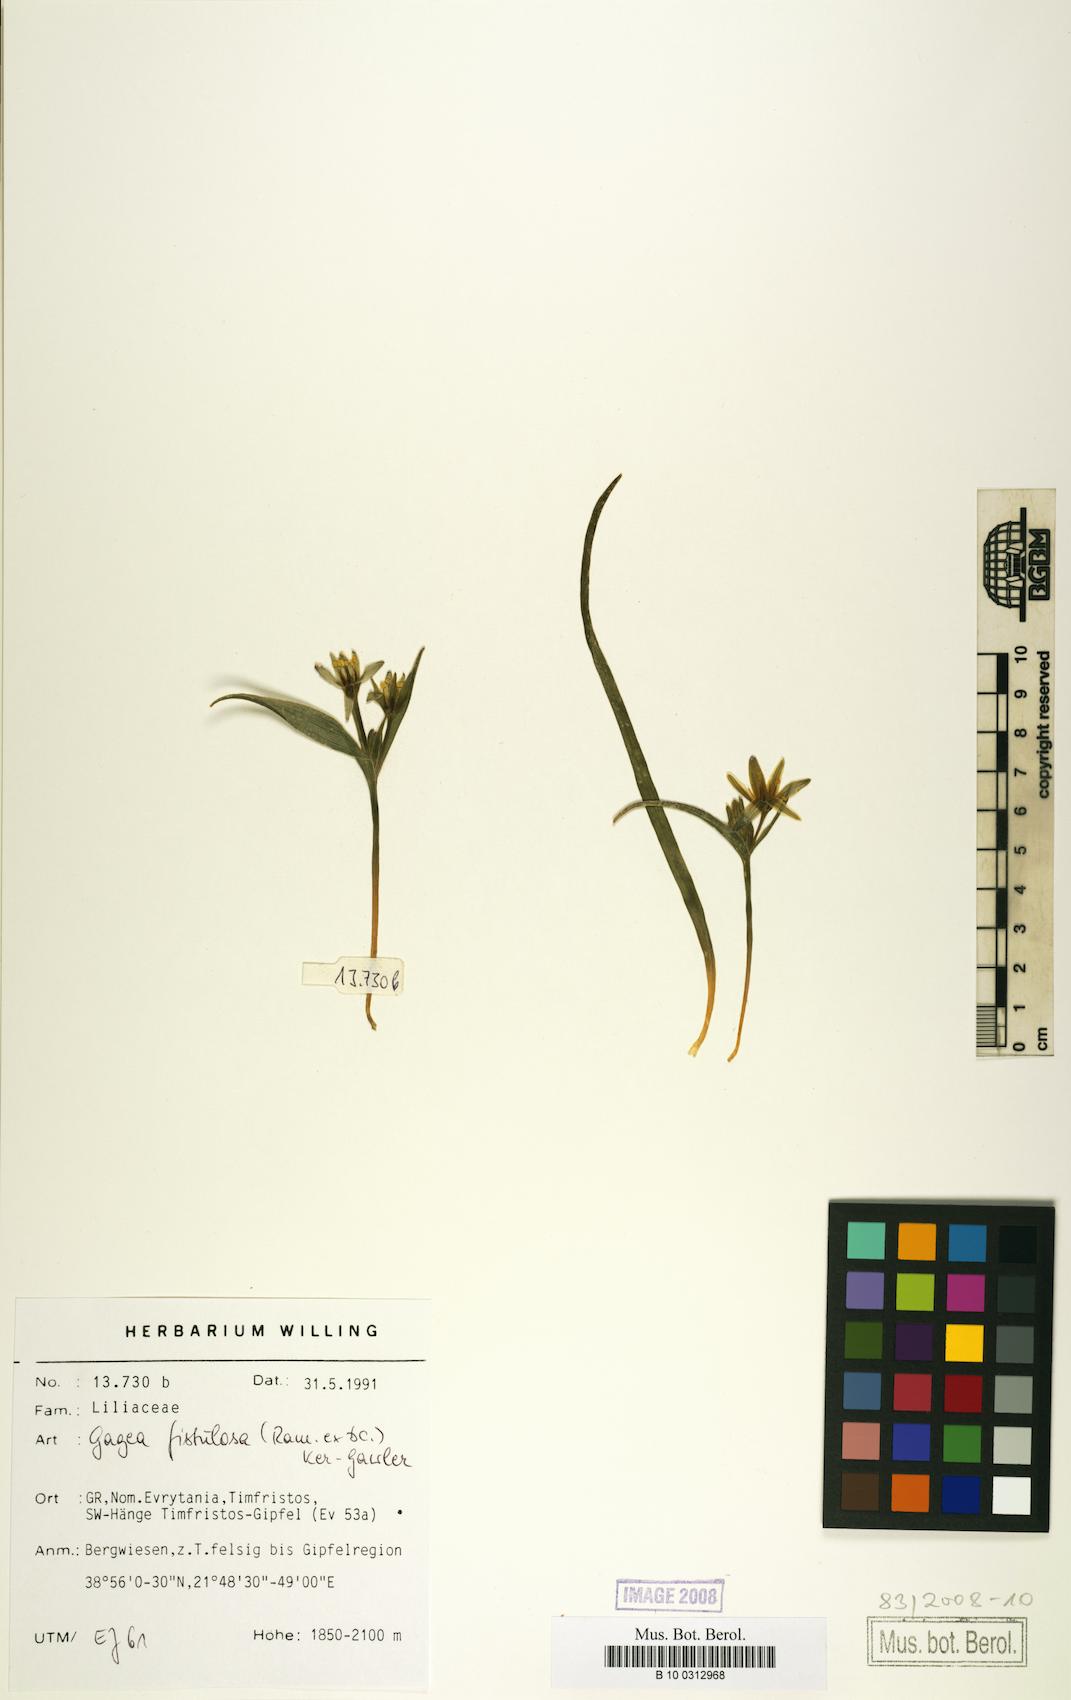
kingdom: Plantae
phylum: Tracheophyta
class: Liliopsida
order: Liliales
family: Liliaceae
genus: Gagea
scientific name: Gagea
